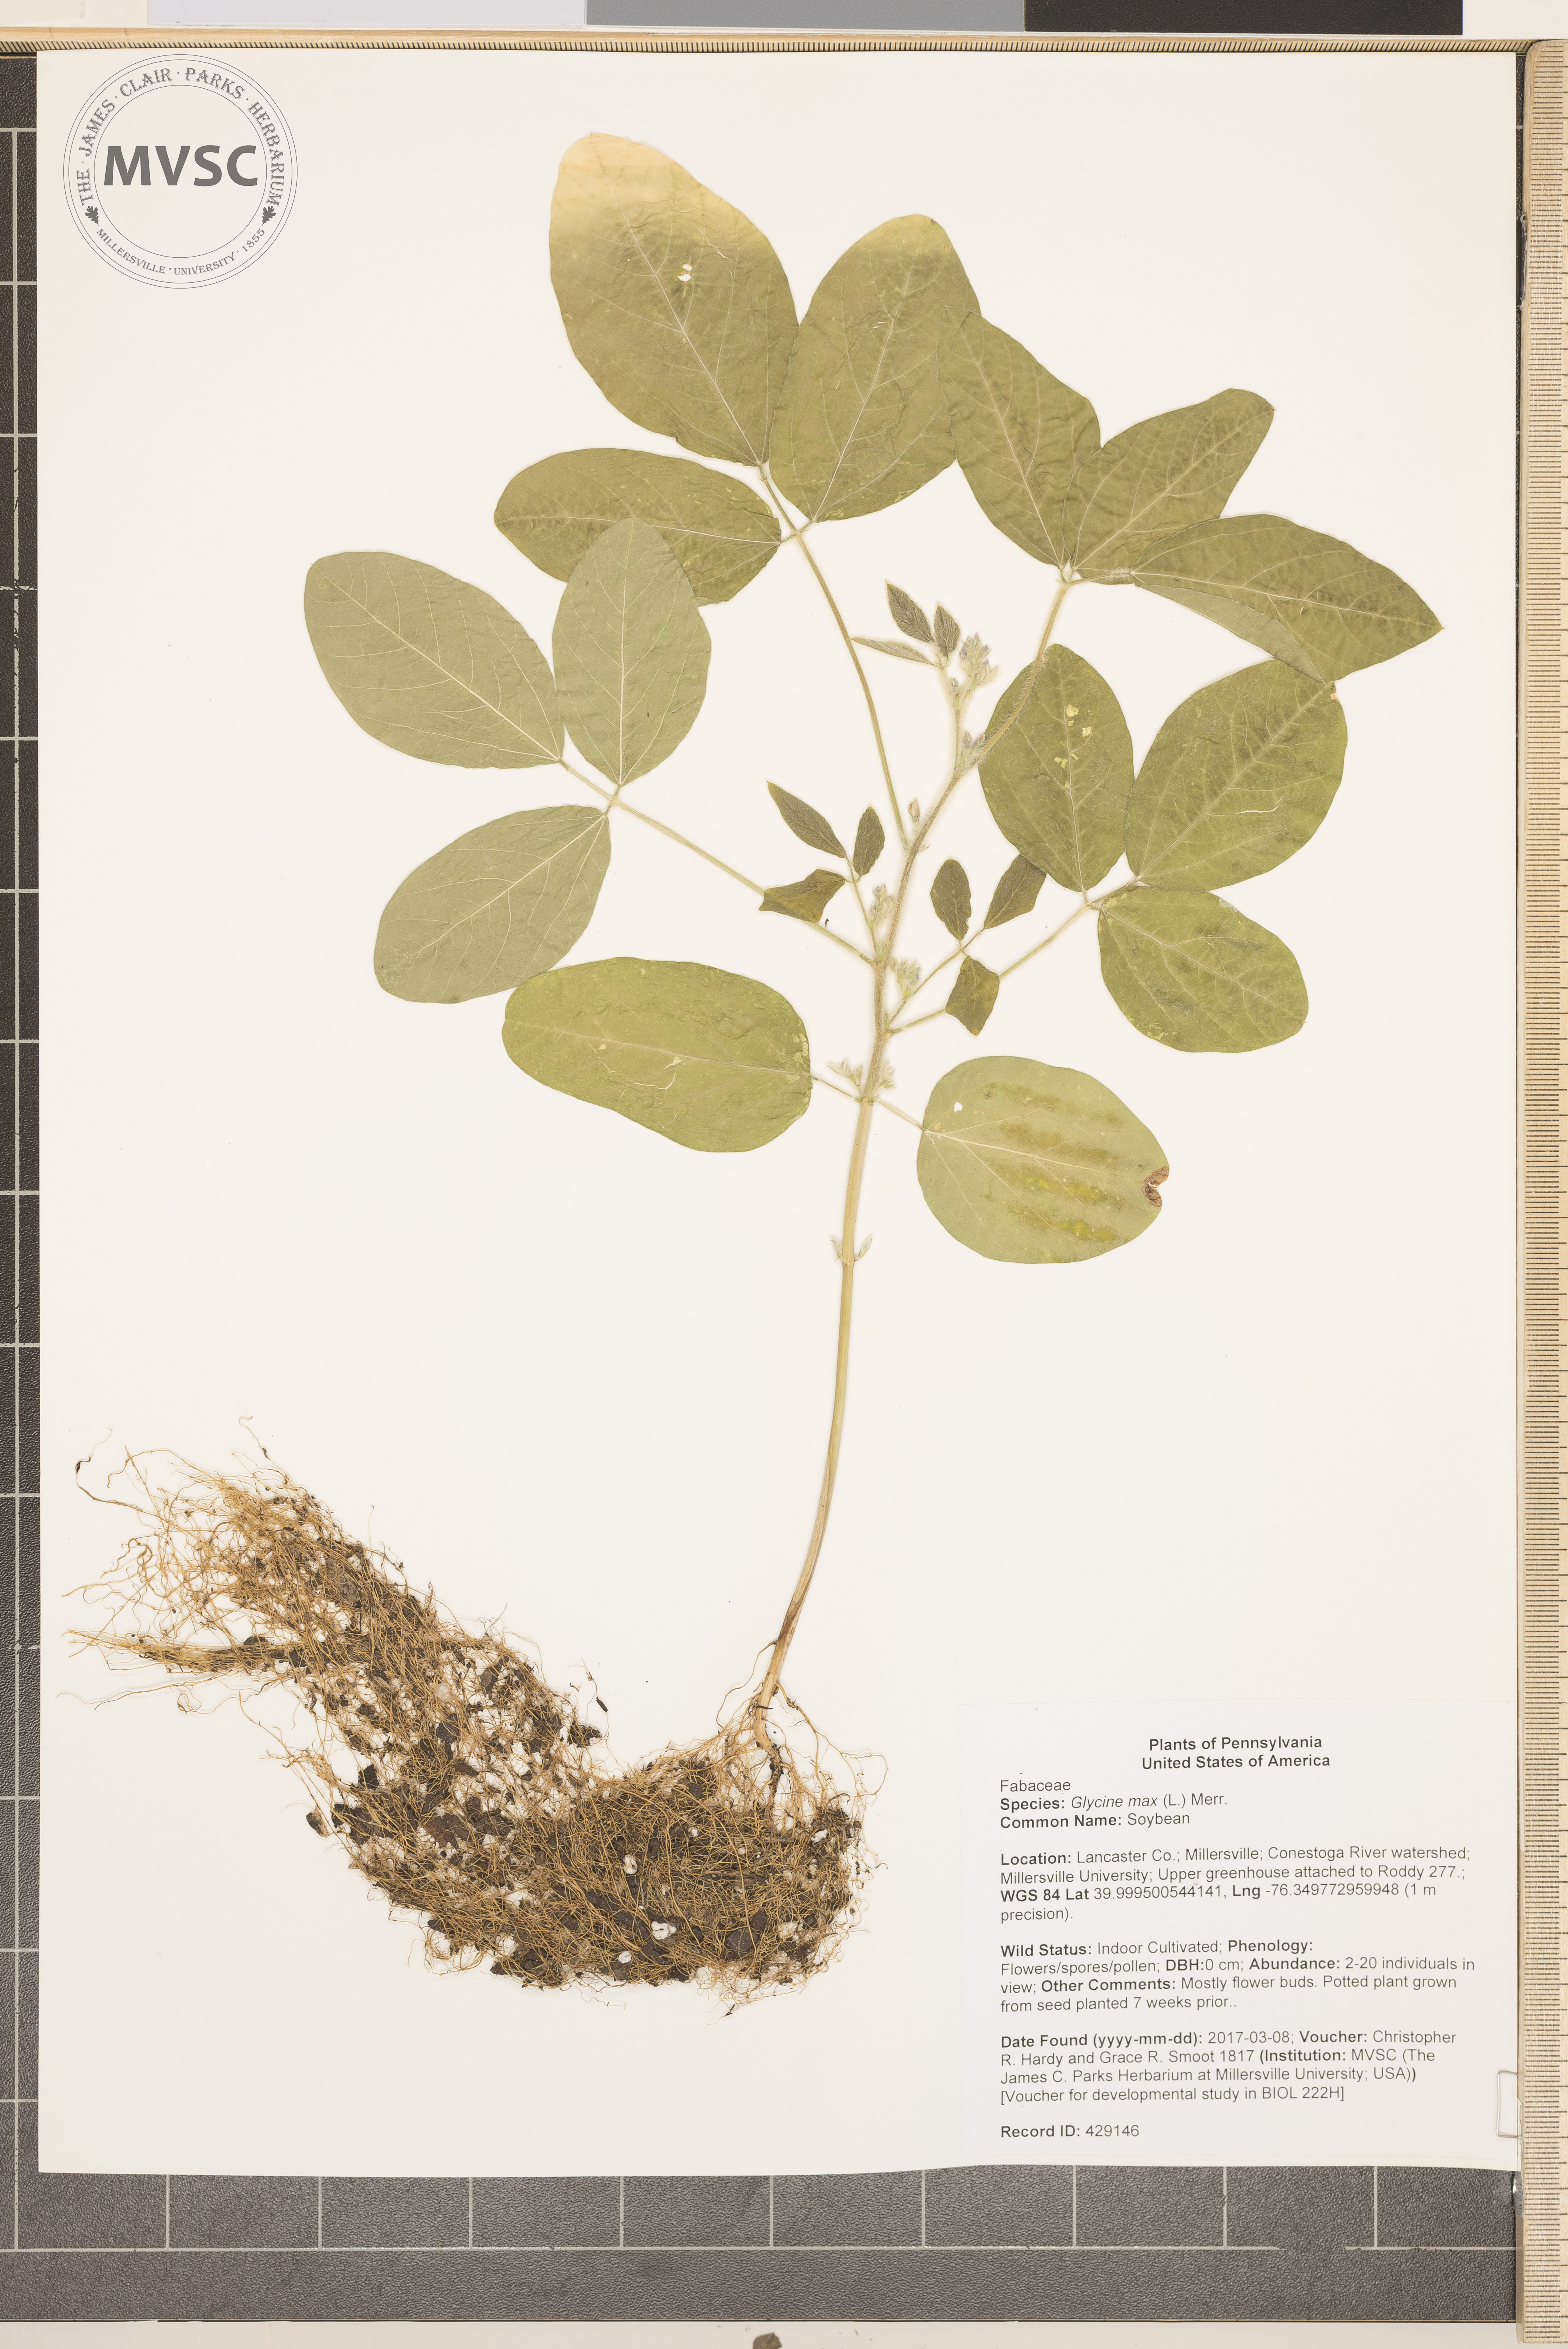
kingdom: Plantae
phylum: Tracheophyta
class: Magnoliopsida
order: Fabales
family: Fabaceae
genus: Glycine
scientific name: Glycine max
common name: Soybean
